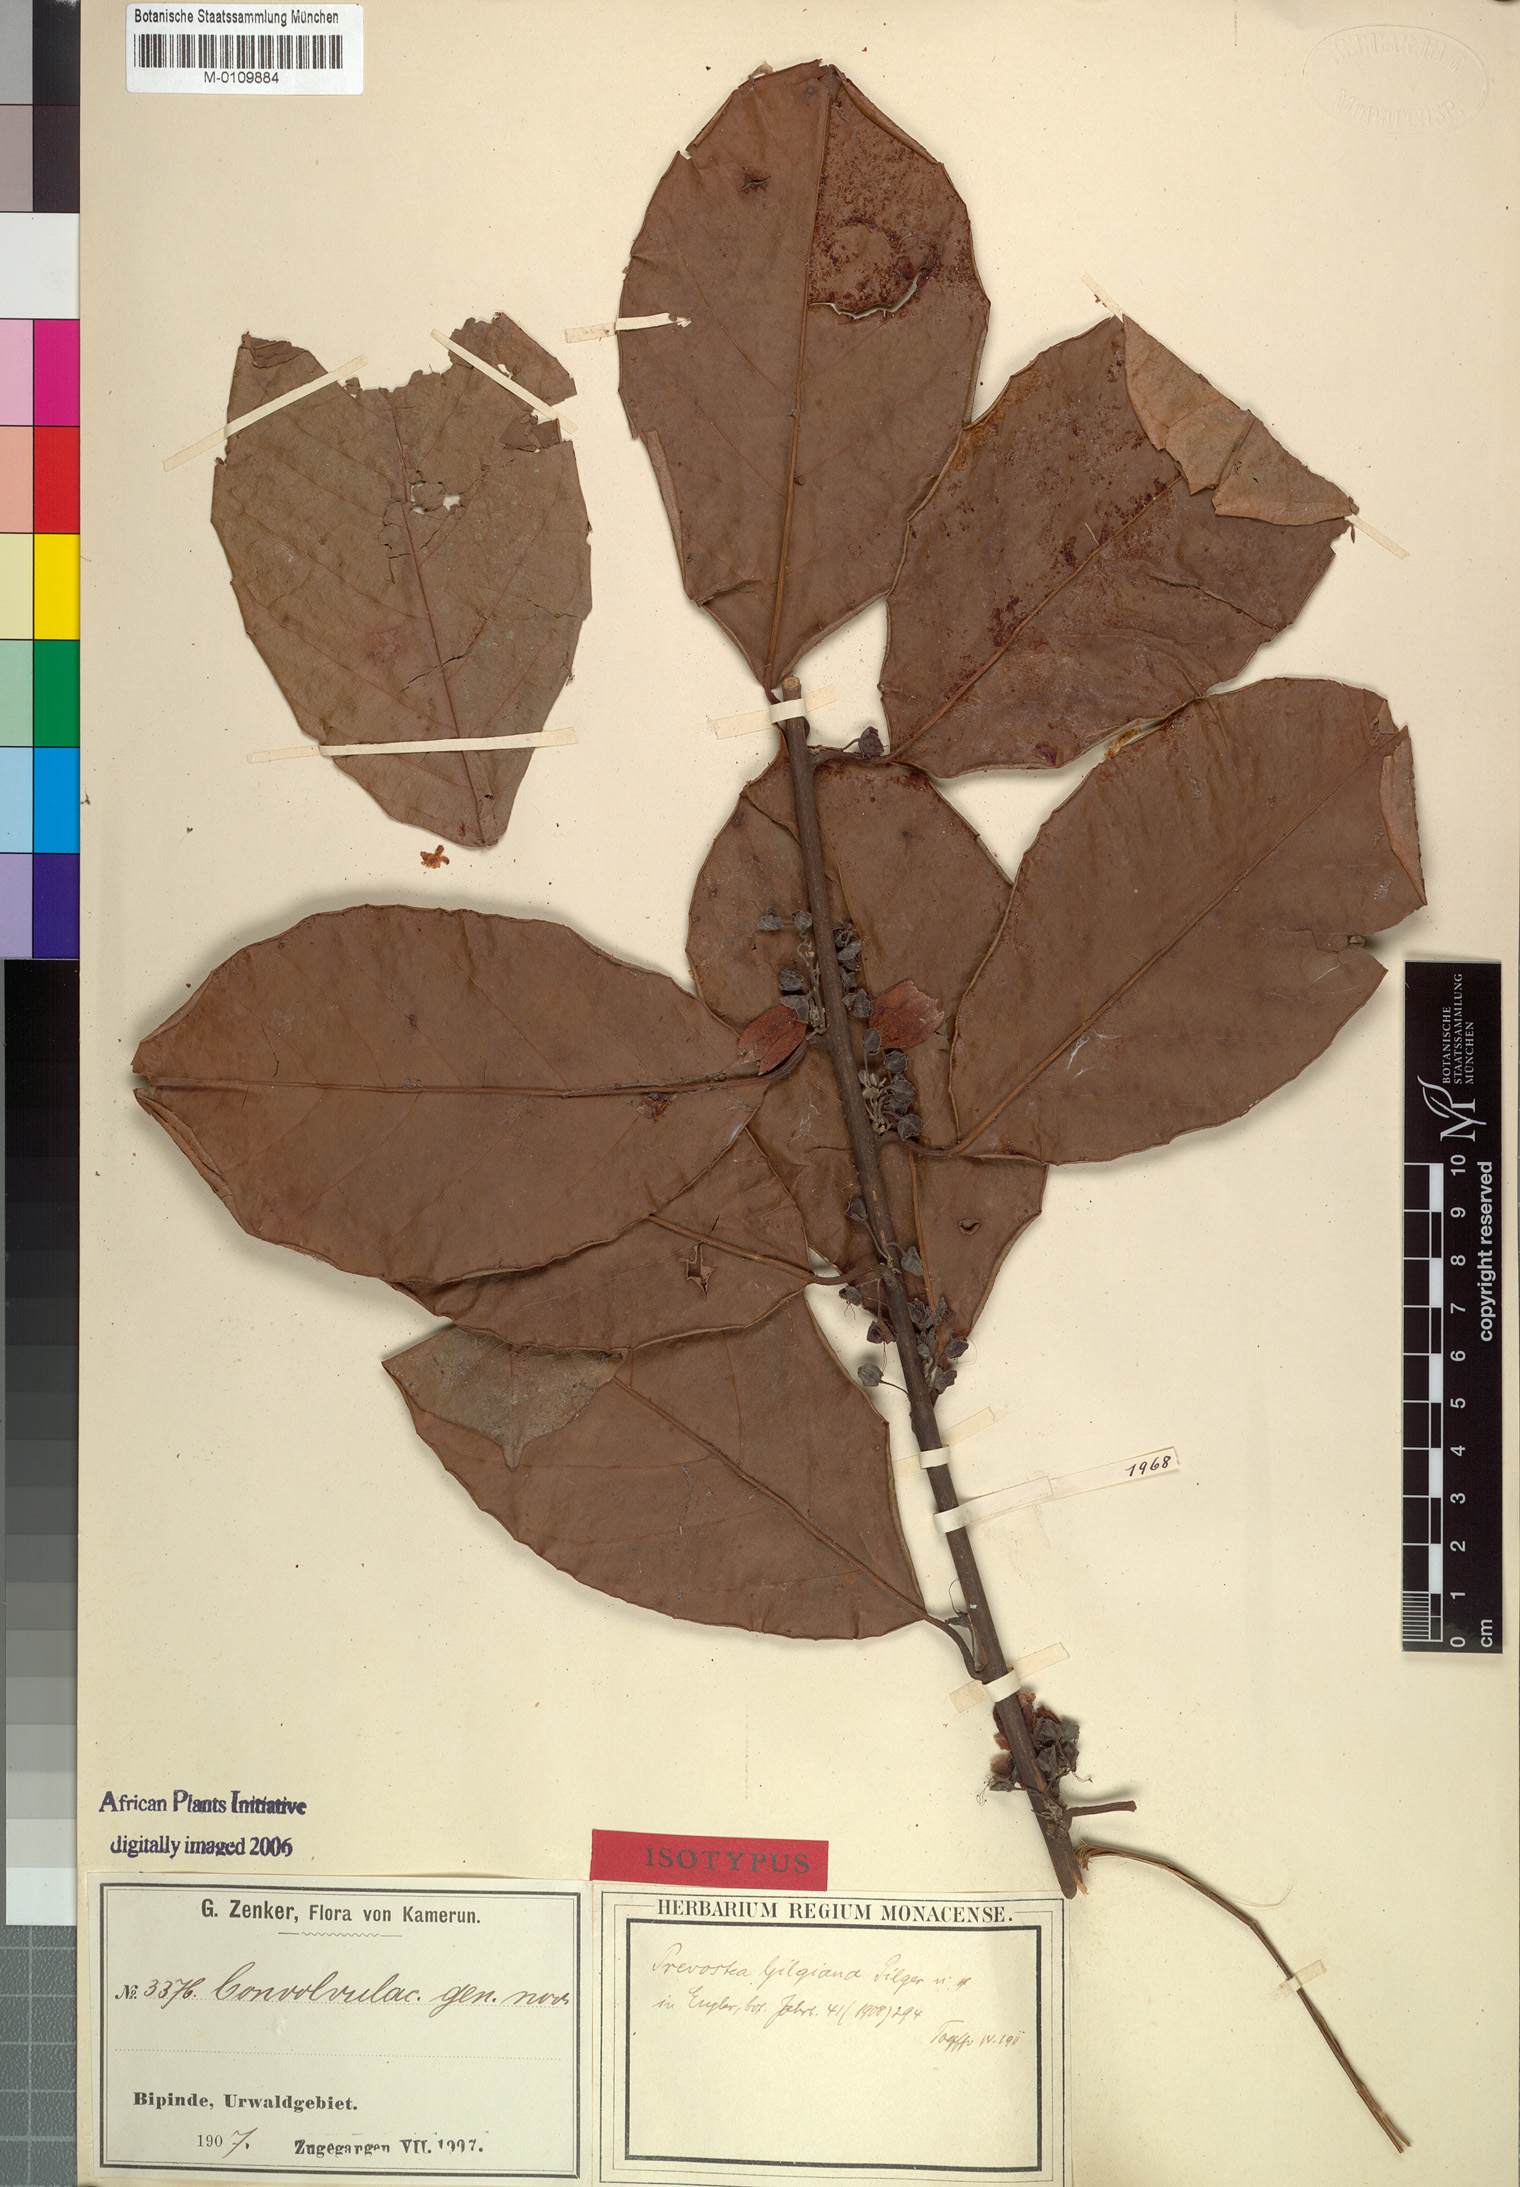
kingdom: Plantae
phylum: Tracheophyta
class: Magnoliopsida
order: Solanales
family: Convolvulaceae
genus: Calycobolus
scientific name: Calycobolus gilgianus
